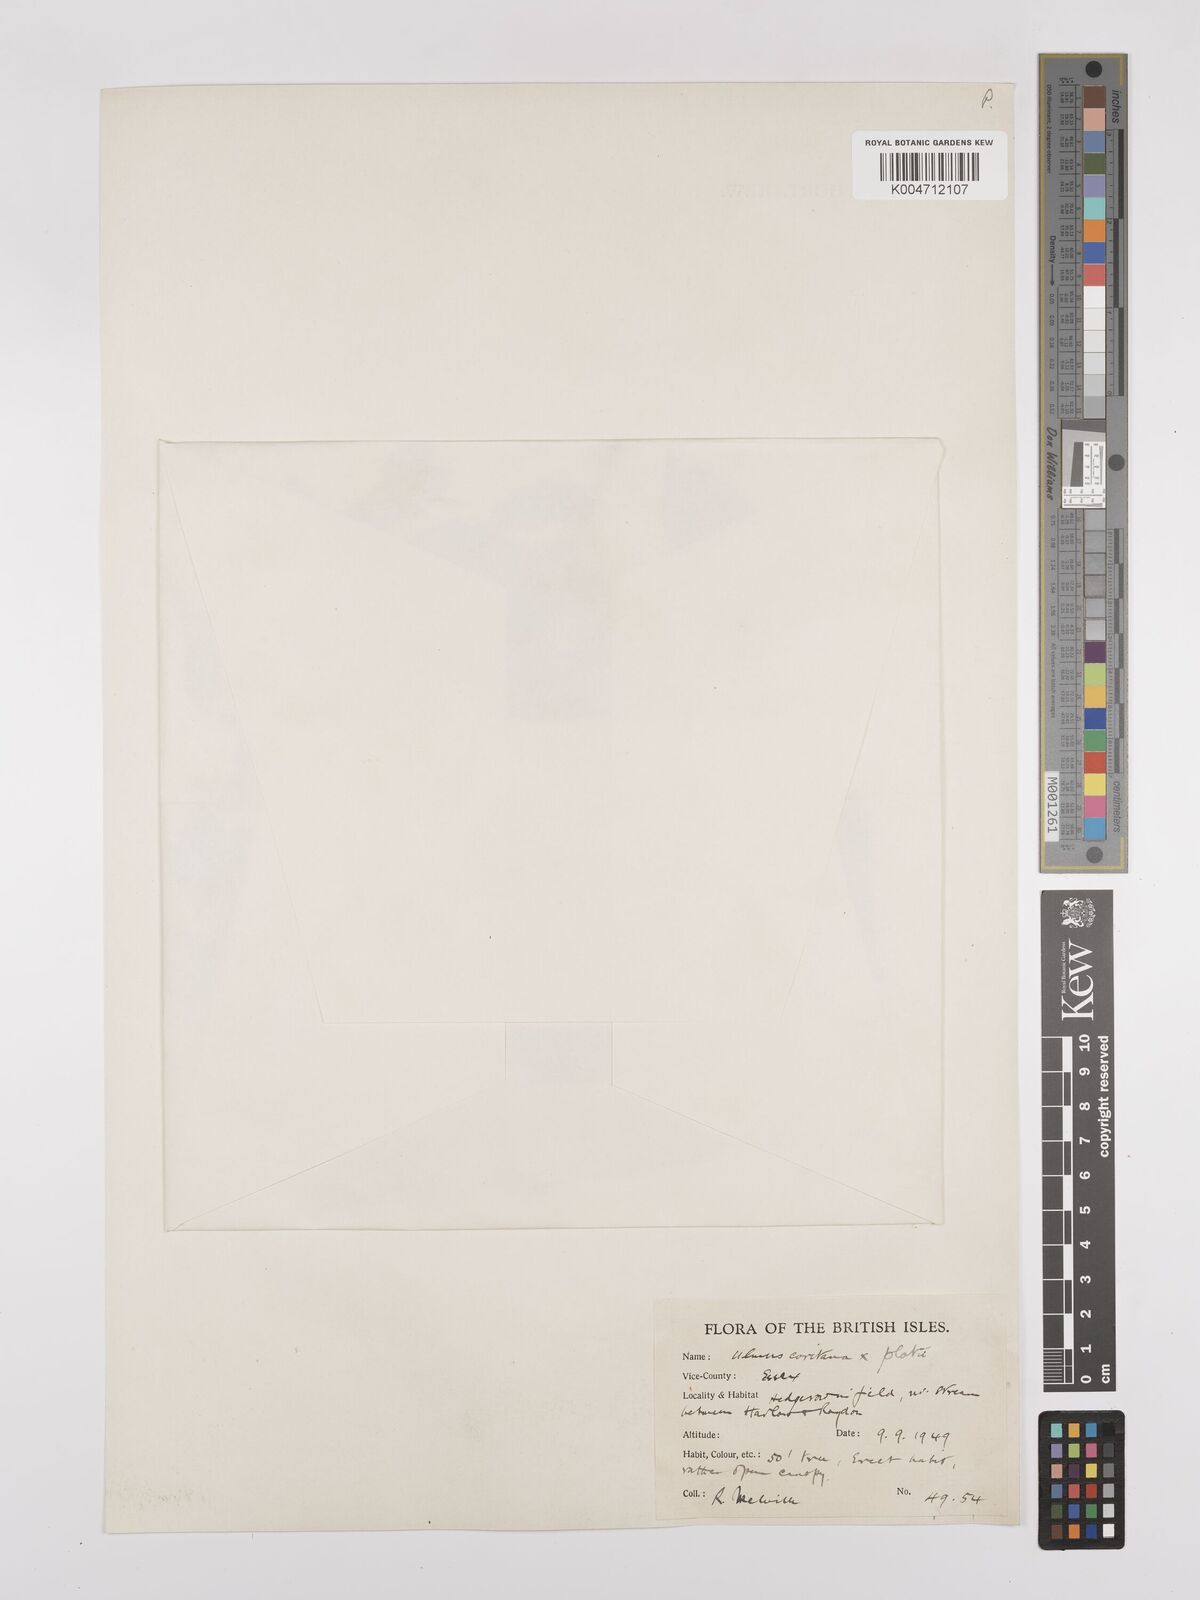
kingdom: Plantae
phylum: Tracheophyta
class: Magnoliopsida
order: Rosales
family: Ulmaceae
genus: Ulmus
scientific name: Ulmus minor
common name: Small-leaved elm
